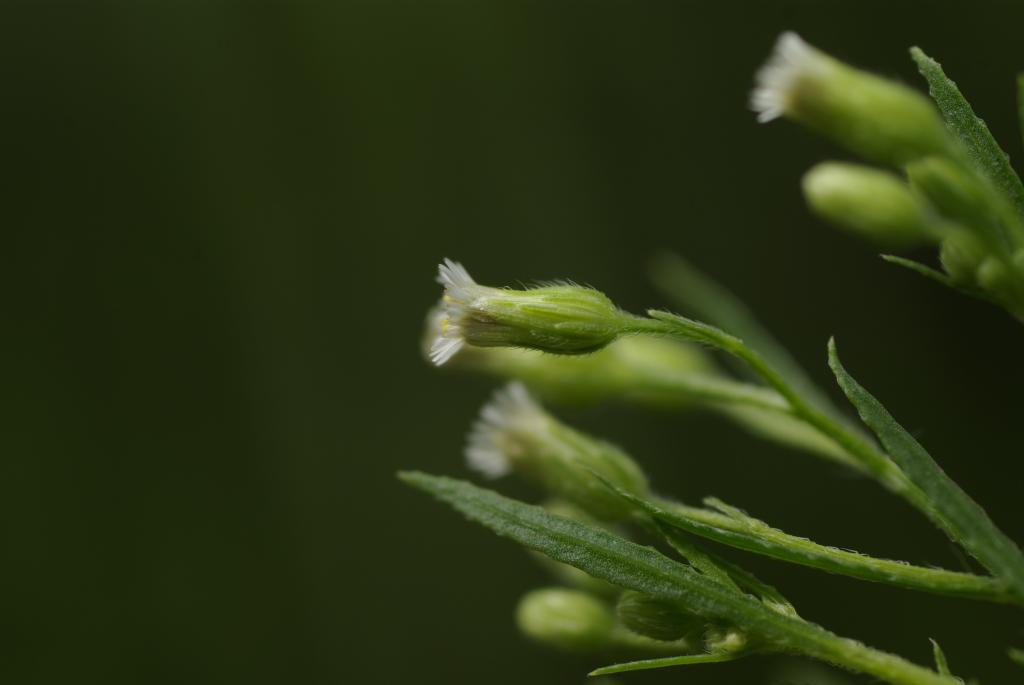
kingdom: Plantae
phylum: Tracheophyta
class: Magnoliopsida
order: Asterales
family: Asteraceae
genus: Erigeron
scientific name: Erigeron canadensis
